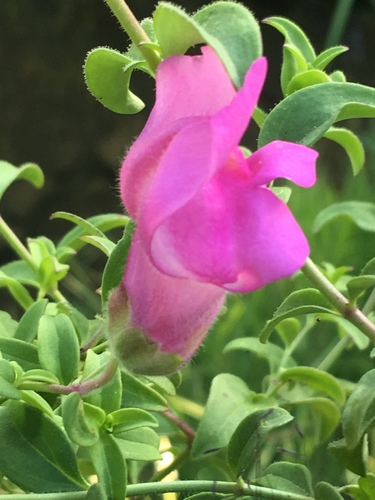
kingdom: Plantae
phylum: Tracheophyta
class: Magnoliopsida
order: Lamiales
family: Plantaginaceae
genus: Antirrhinum
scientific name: Antirrhinum linkianum
